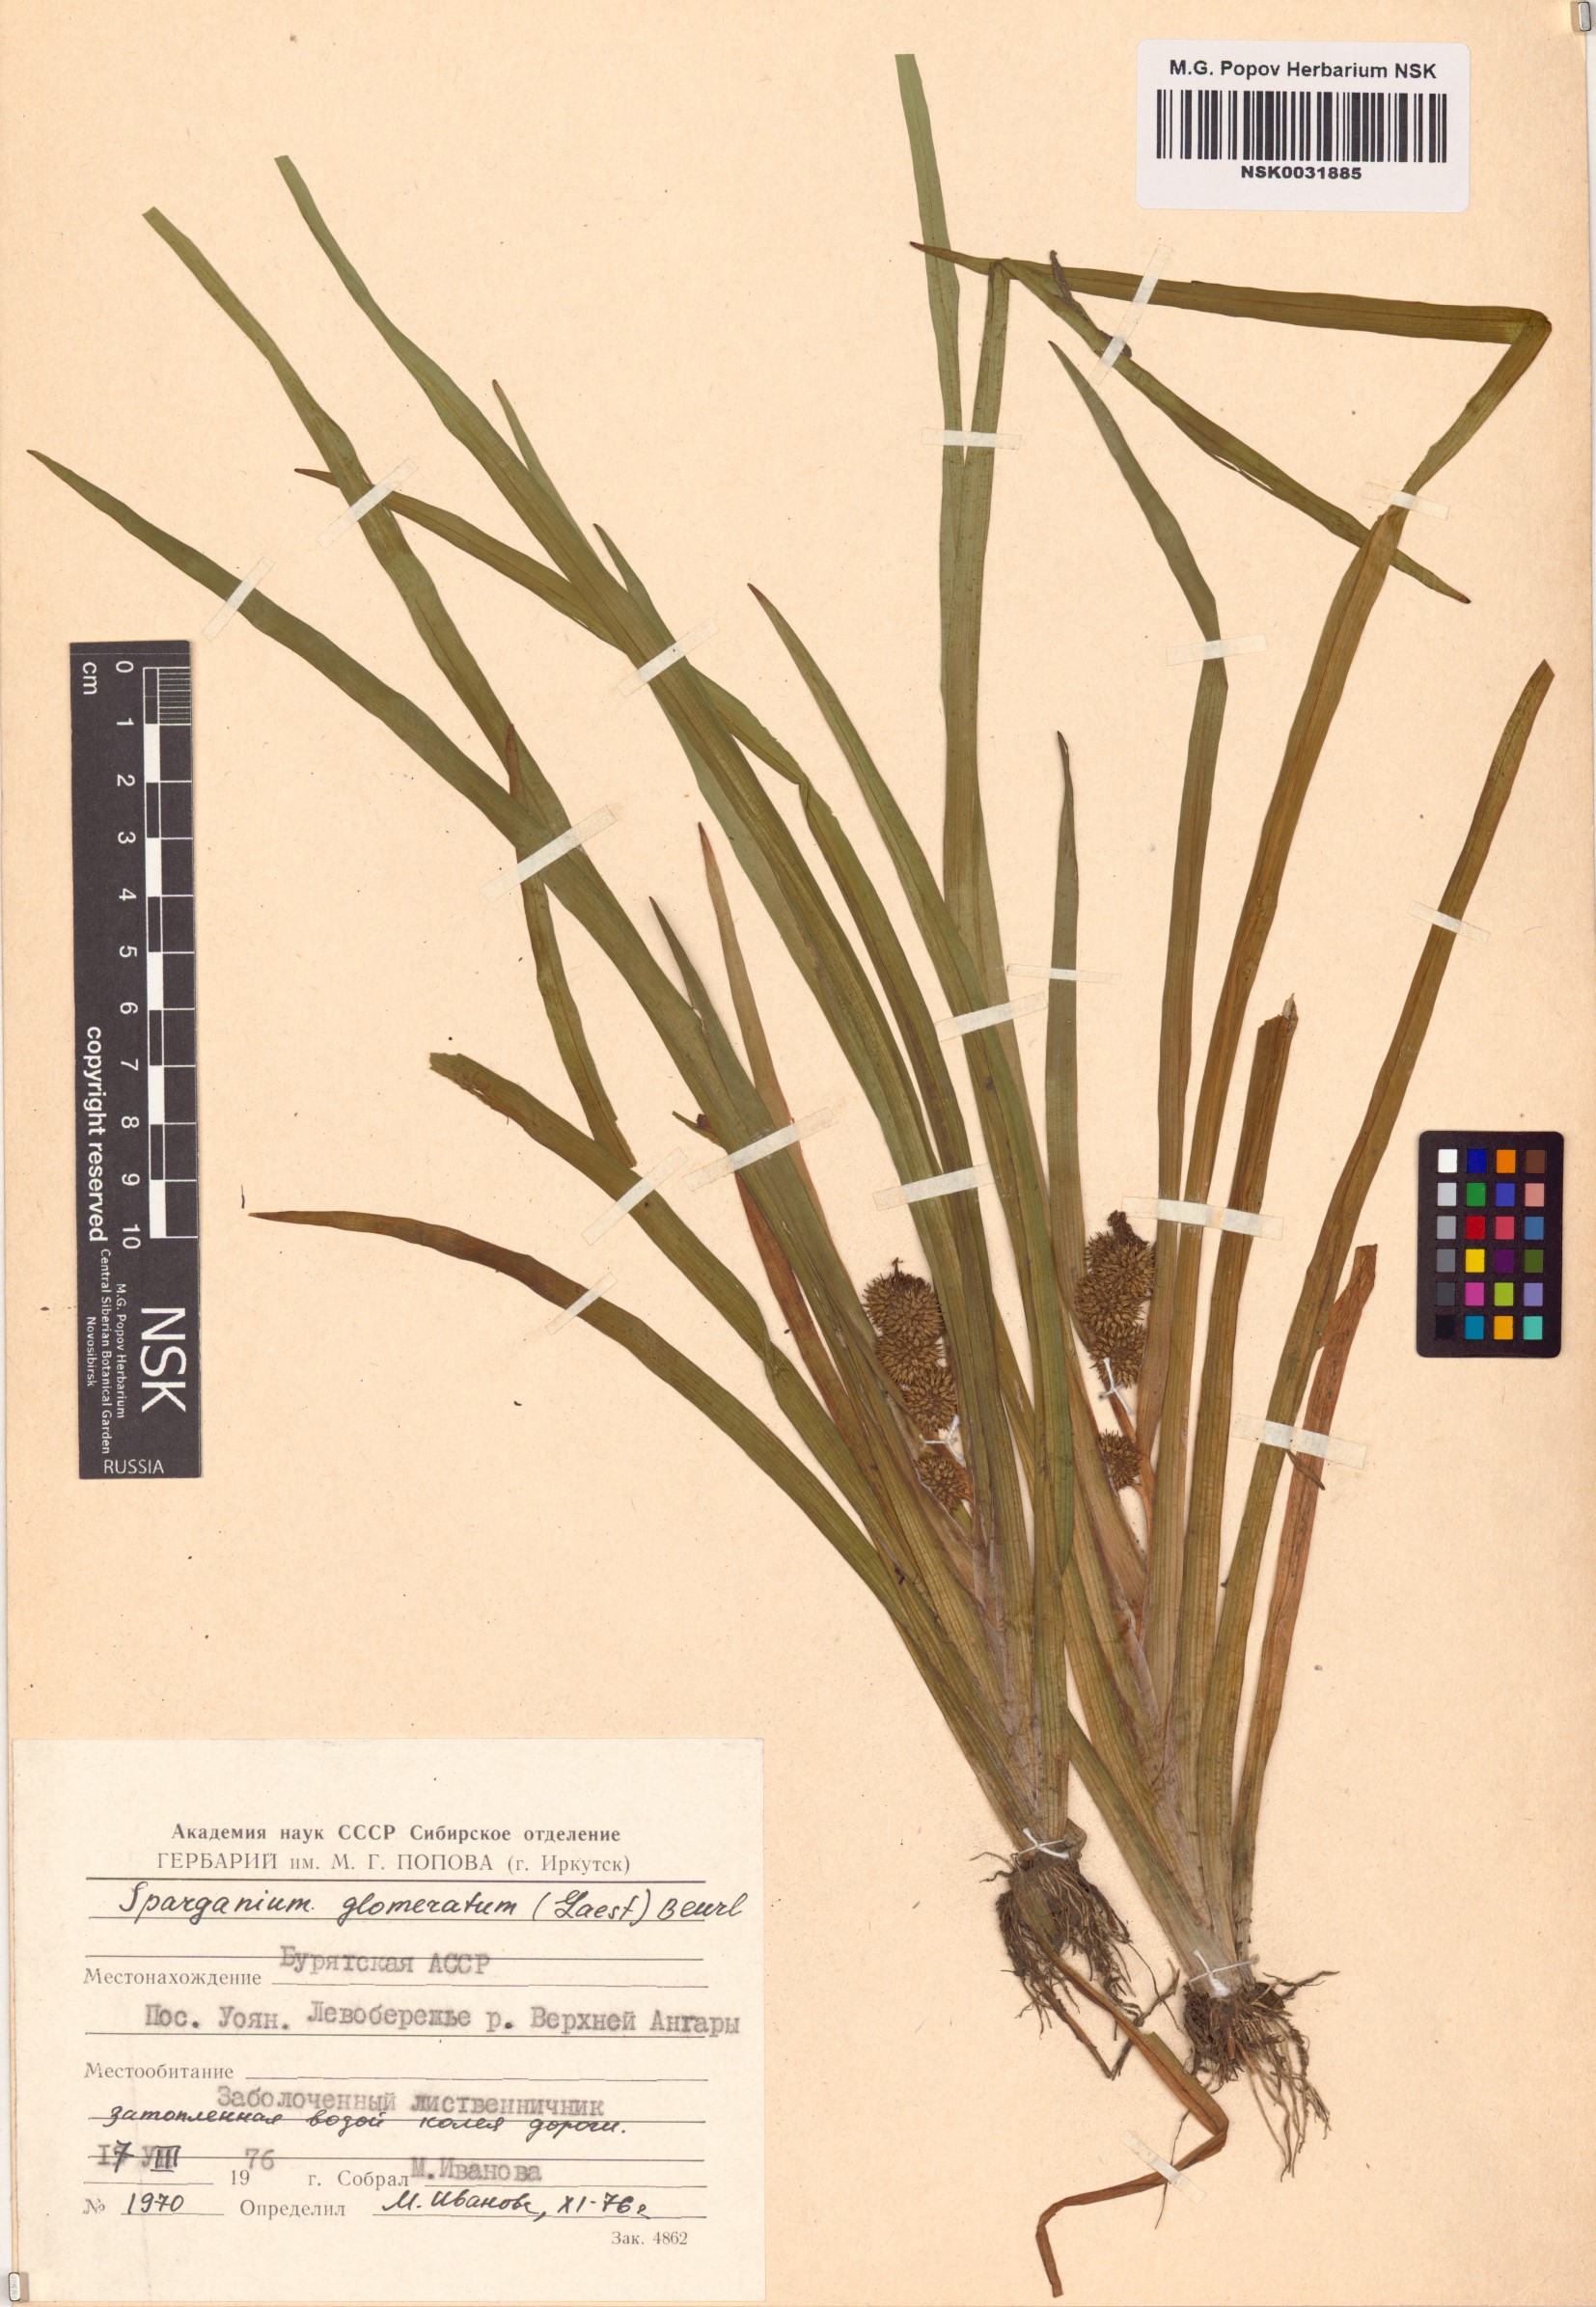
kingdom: Plantae
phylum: Tracheophyta
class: Liliopsida
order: Poales
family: Typhaceae
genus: Sparganium
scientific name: Sparganium glomeratum
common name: Clustered burreed
